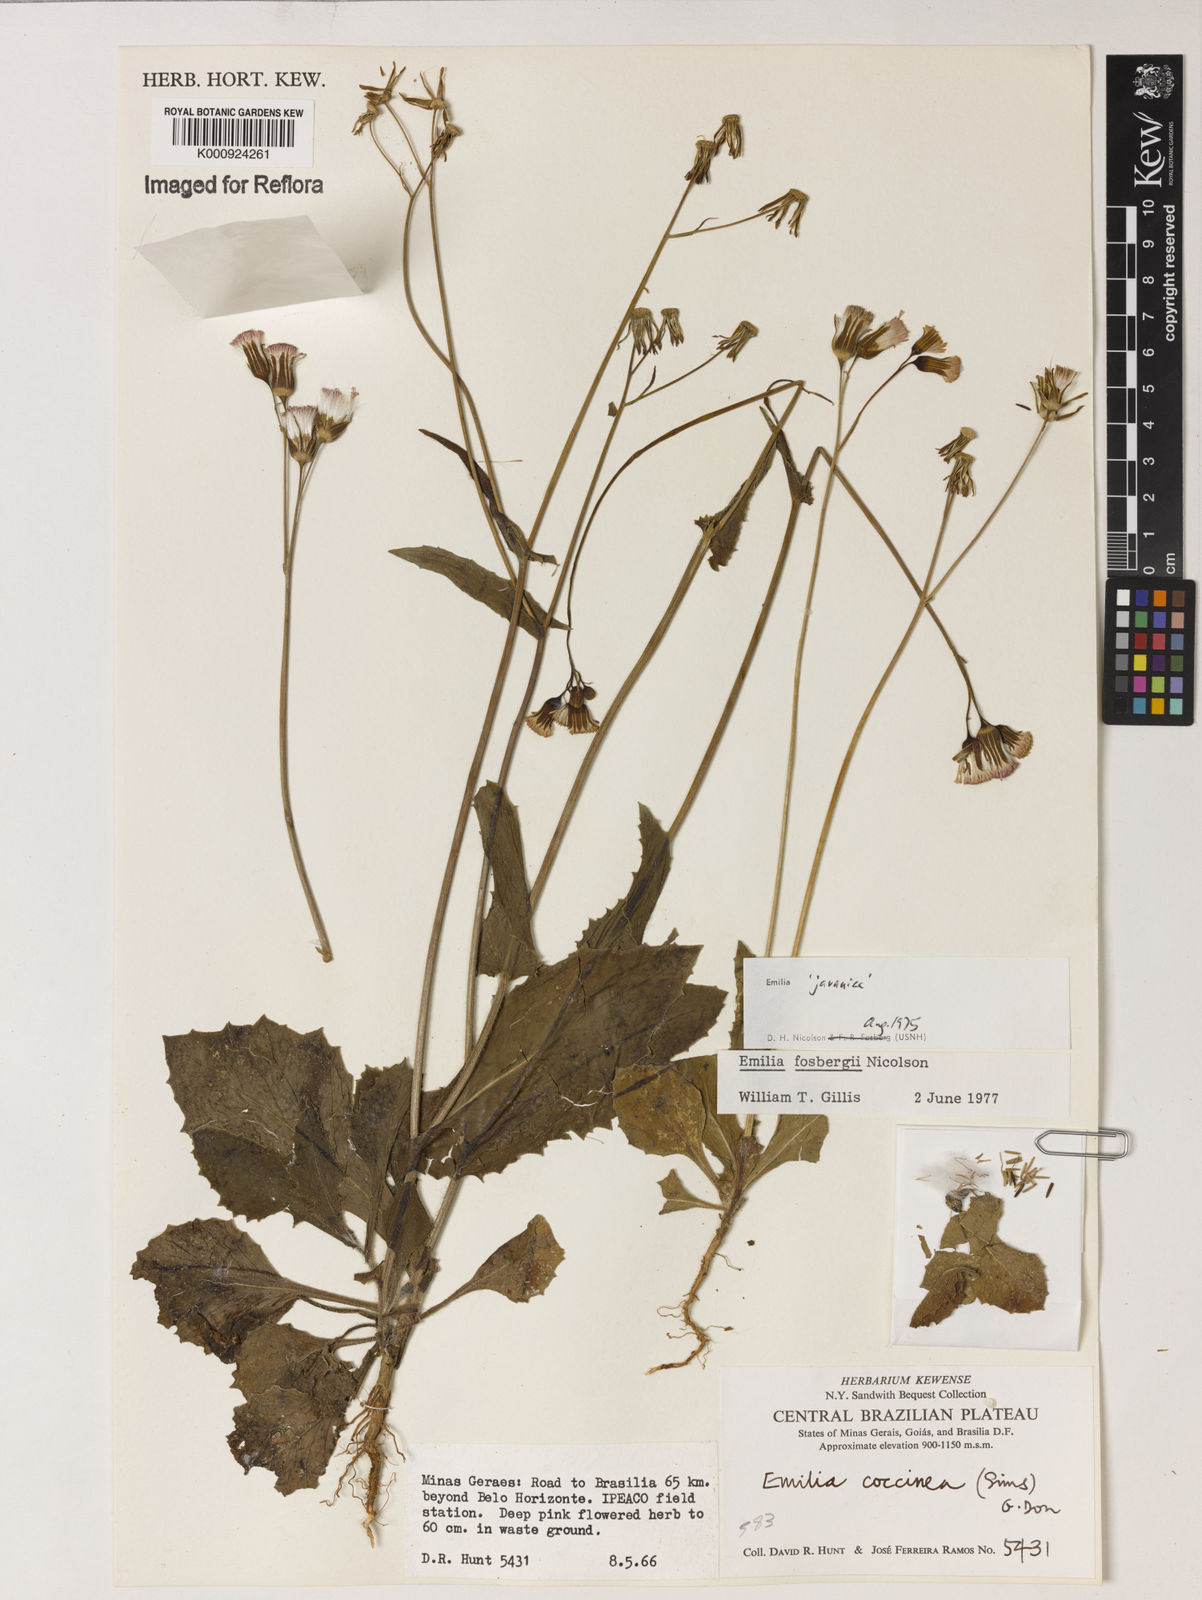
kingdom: Plantae
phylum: Tracheophyta
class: Magnoliopsida
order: Asterales
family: Asteraceae
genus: Emilia
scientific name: Emilia fosbergii
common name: Florida tasselflower
